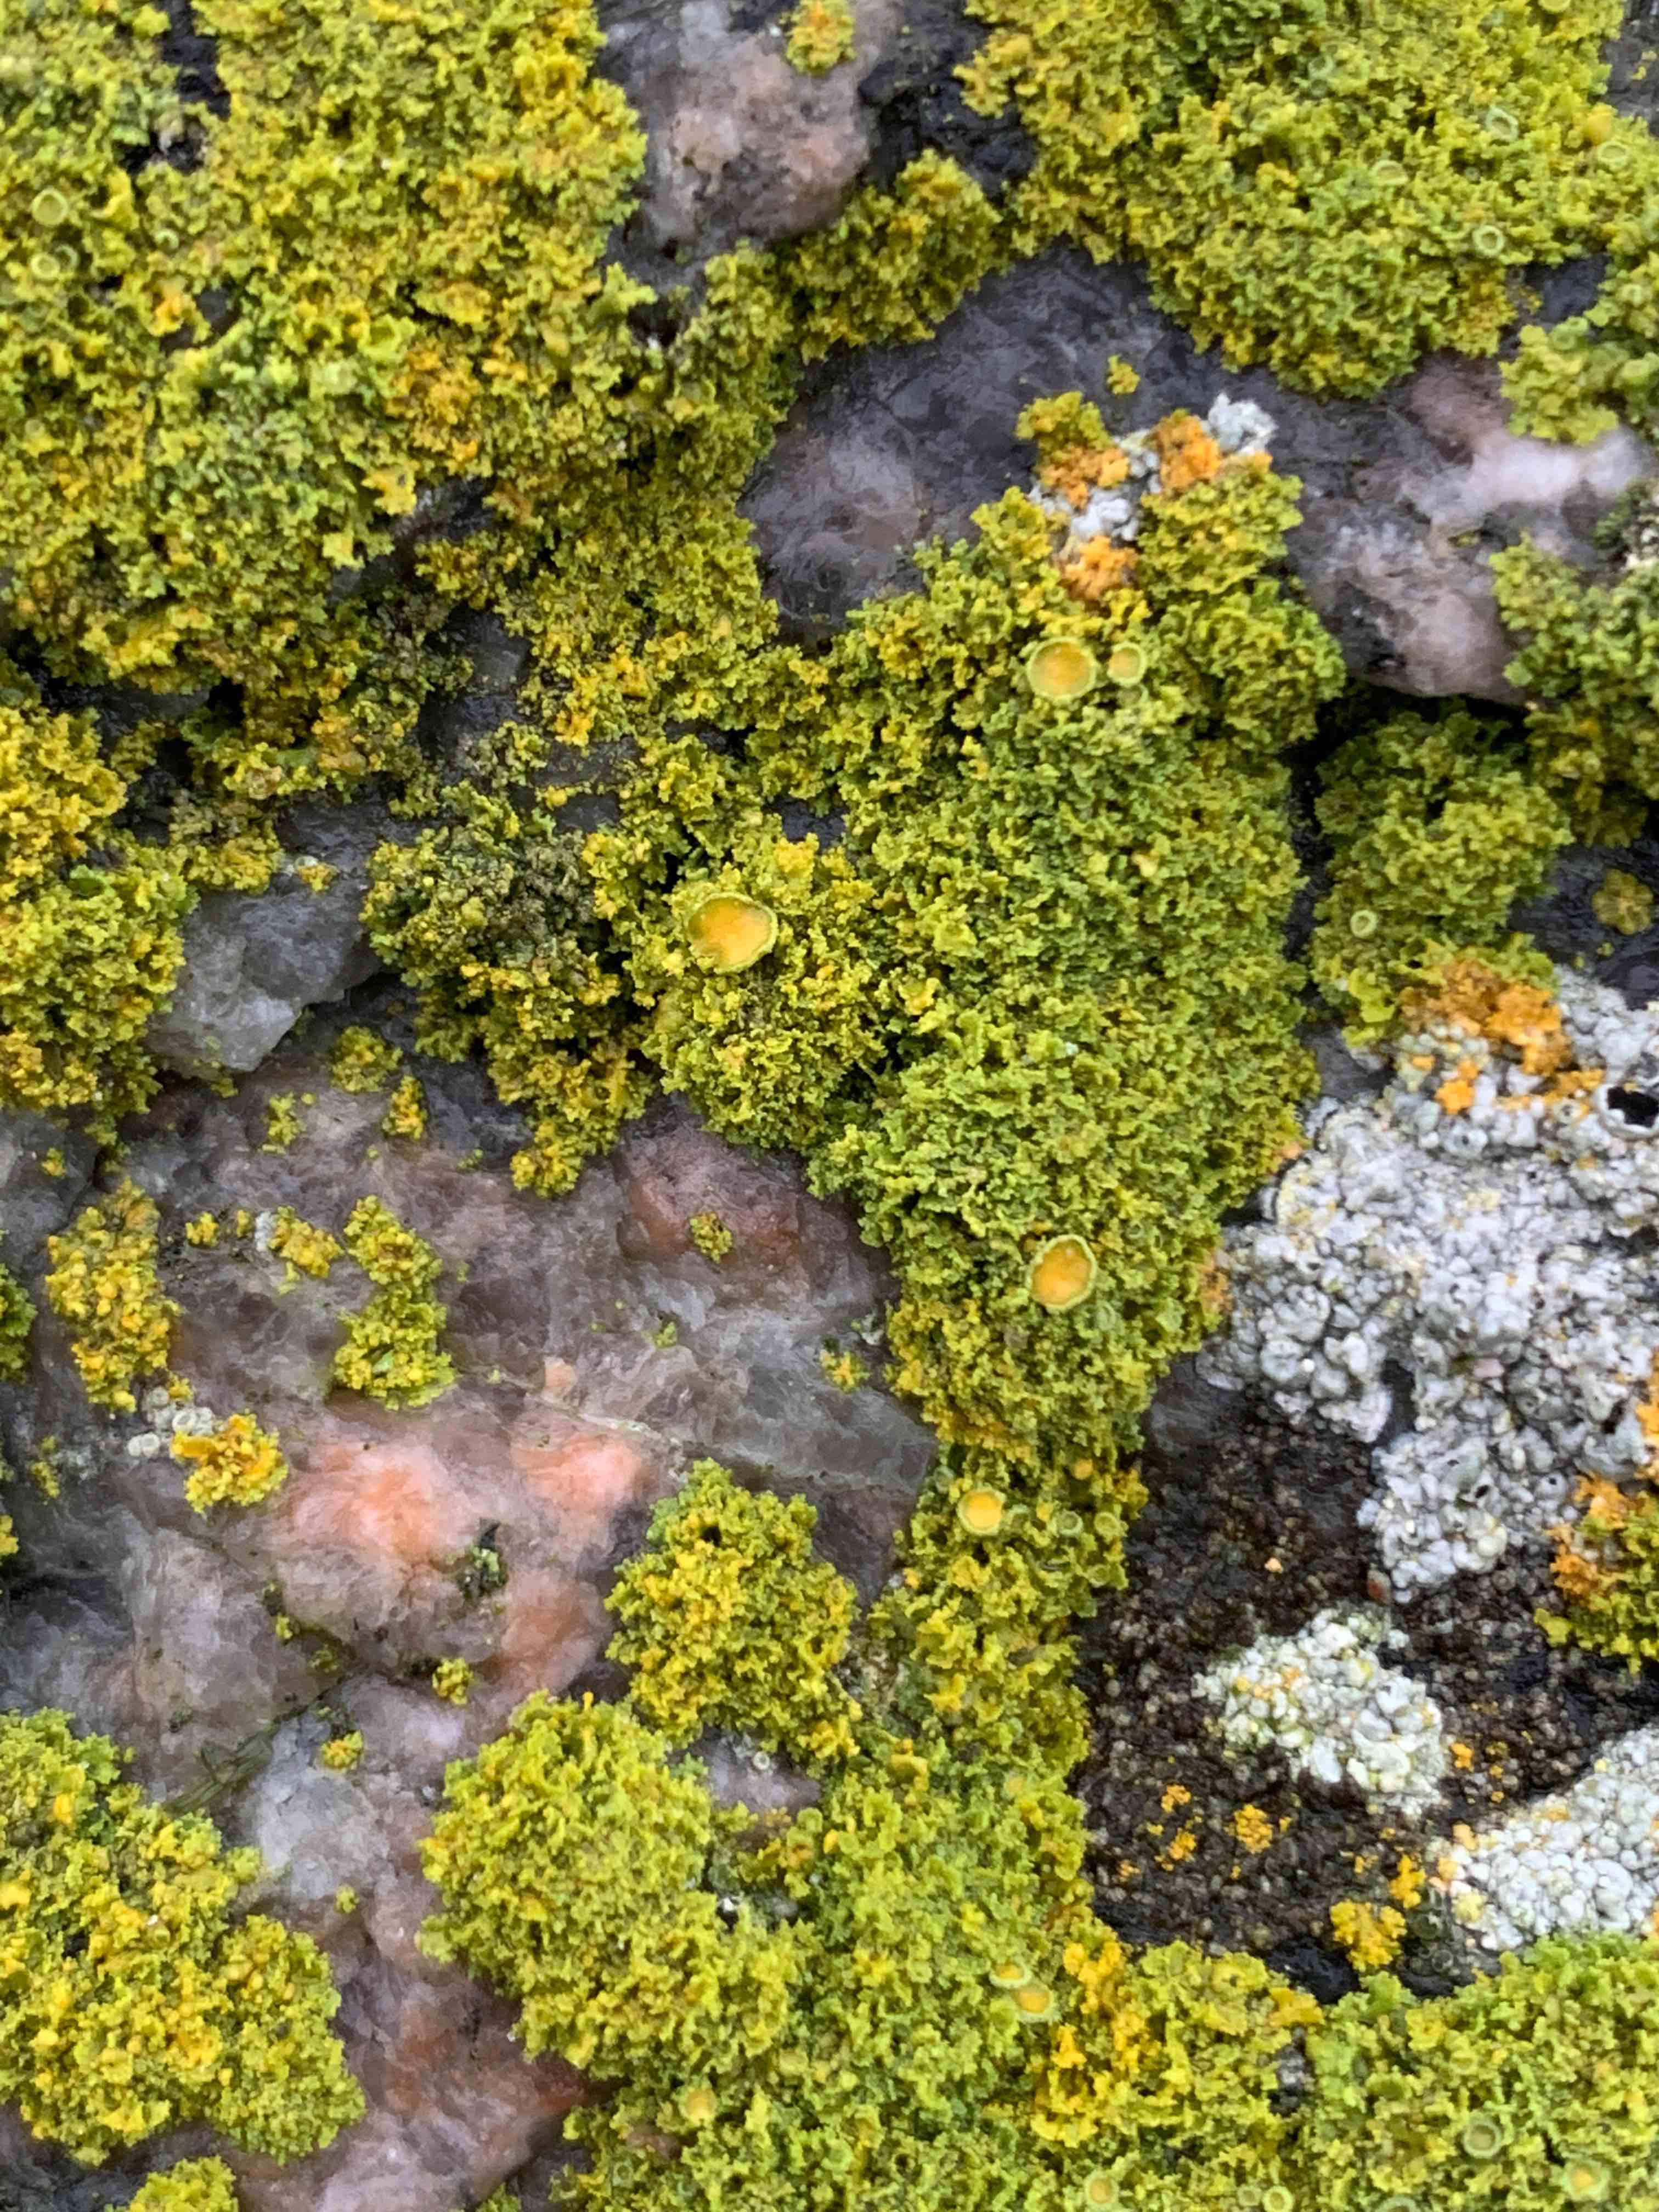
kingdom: Fungi
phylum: Ascomycota
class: Lecanoromycetes
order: Teloschistales
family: Teloschistaceae
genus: Polycauliona
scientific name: Polycauliona candelaria
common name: tue-orangelav
